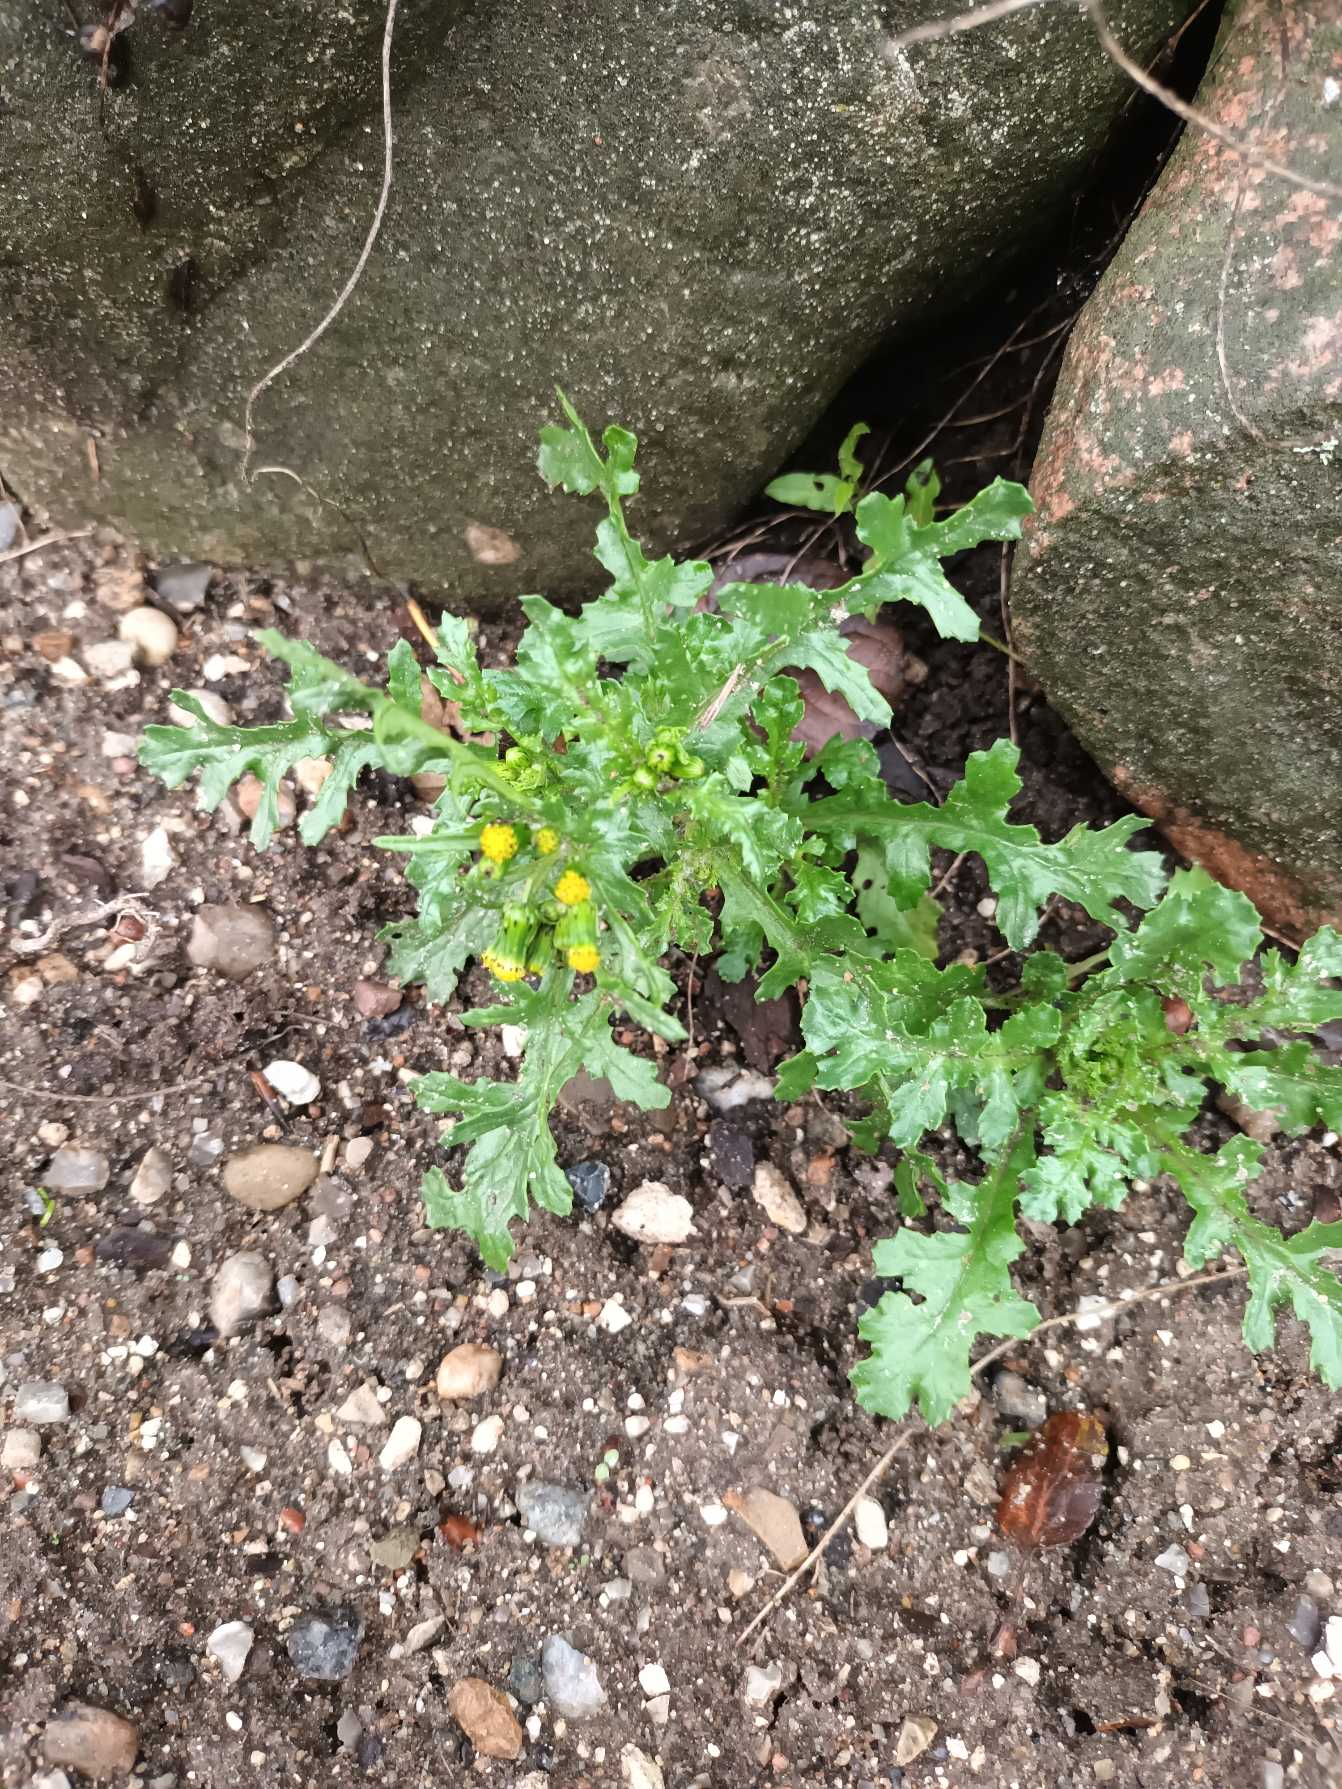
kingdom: Plantae
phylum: Tracheophyta
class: Magnoliopsida
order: Asterales
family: Asteraceae
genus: Senecio
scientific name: Senecio vulgaris
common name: Almindelig brandbæger
